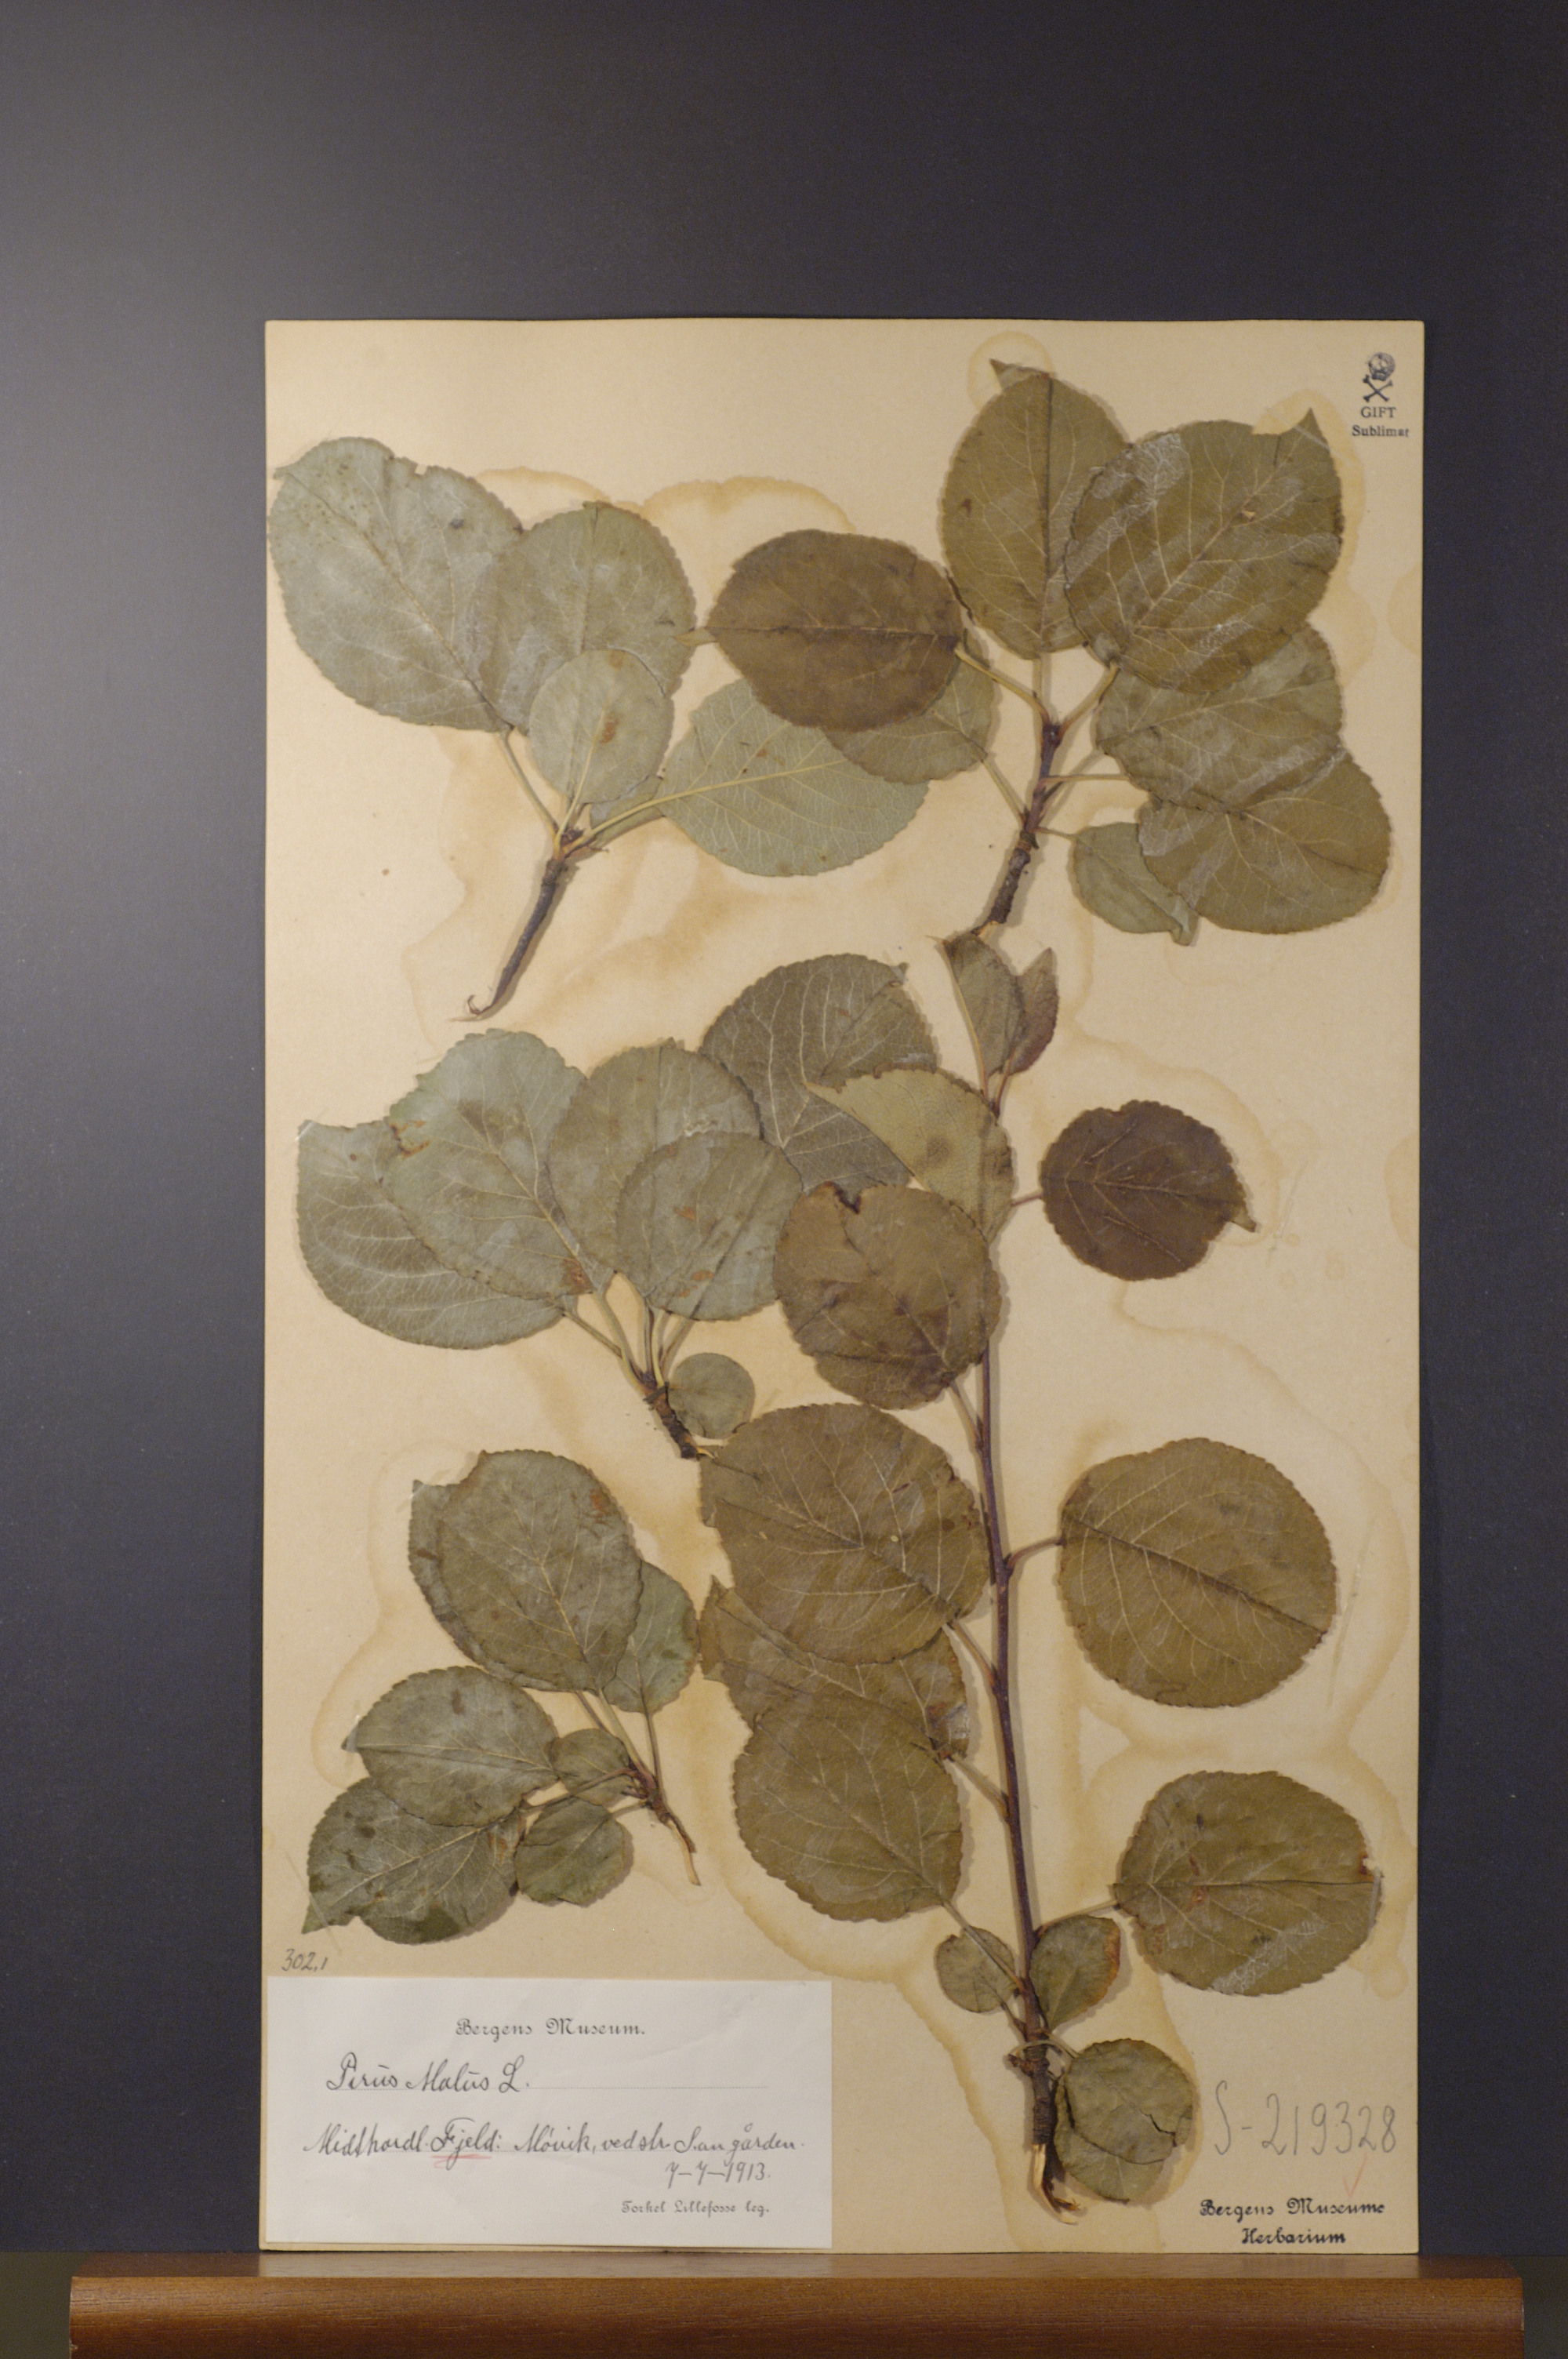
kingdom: Plantae
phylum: Tracheophyta
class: Magnoliopsida
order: Rosales
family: Rosaceae
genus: Malus
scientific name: Malus domestica
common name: Apple
